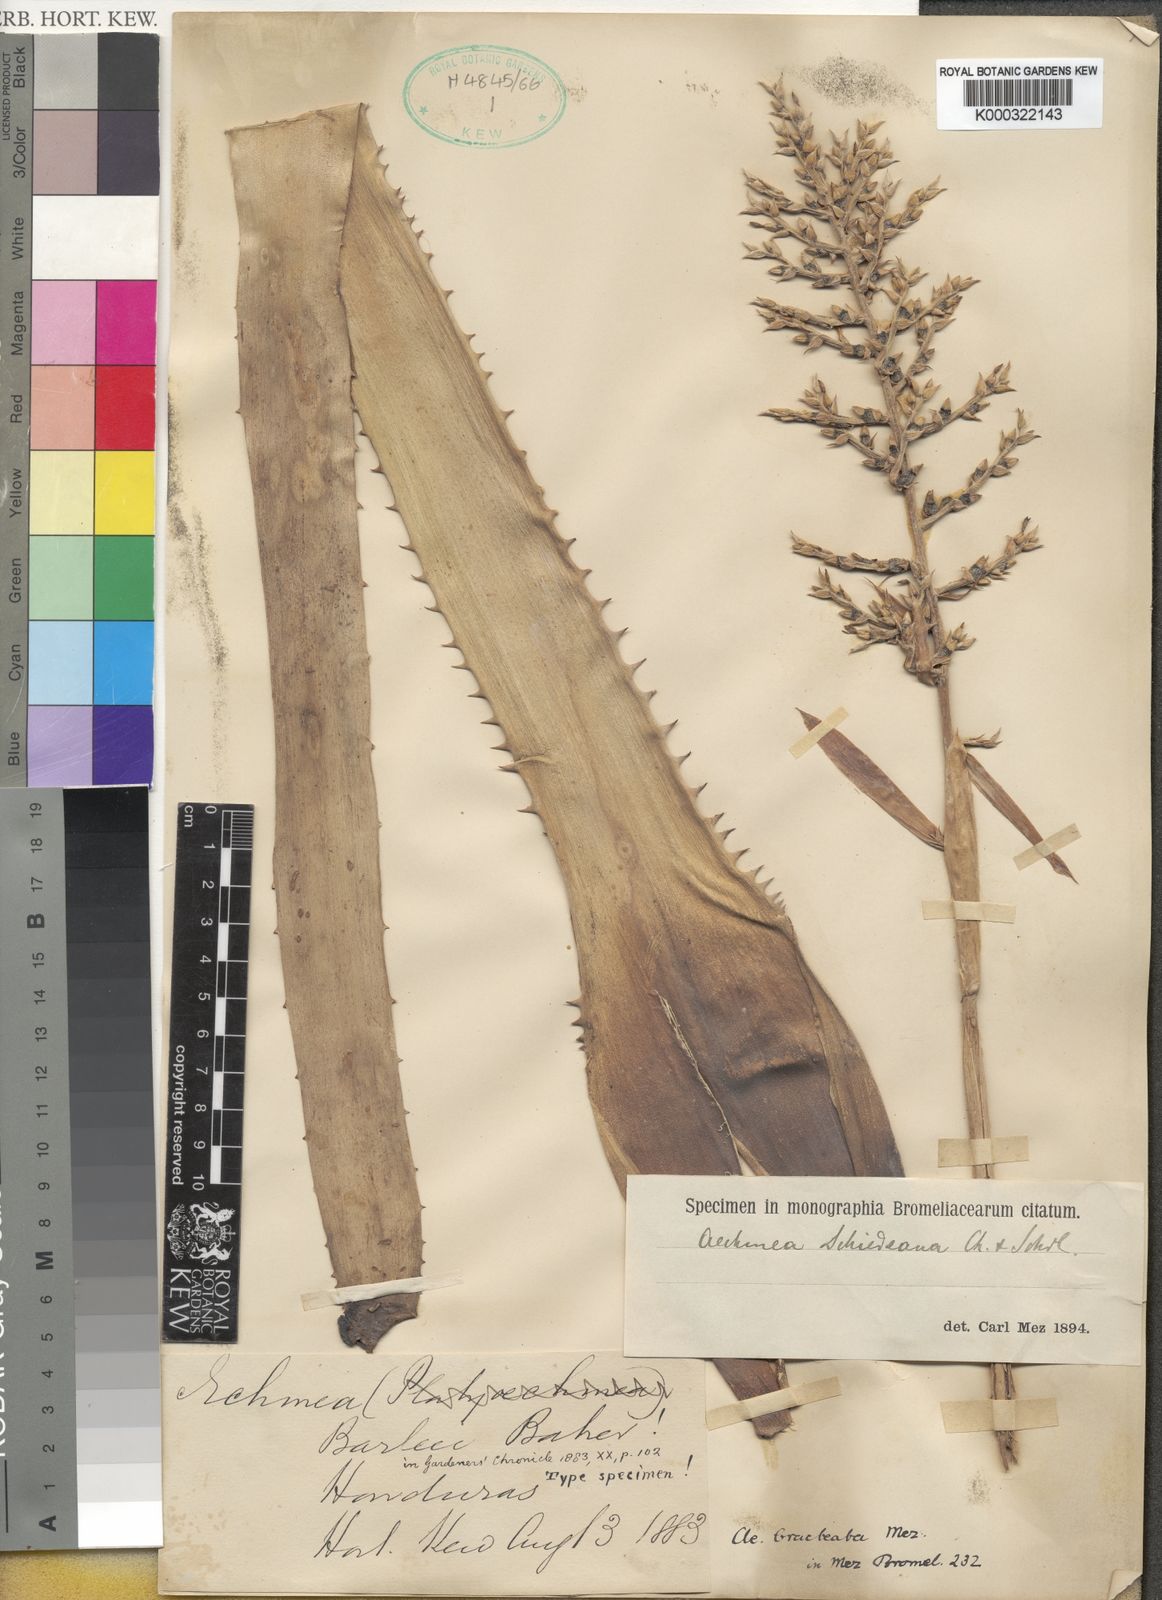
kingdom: Plantae
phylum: Tracheophyta
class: Liliopsida
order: Poales
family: Bromeliaceae
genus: Aechmea
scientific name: Aechmea bracteata
